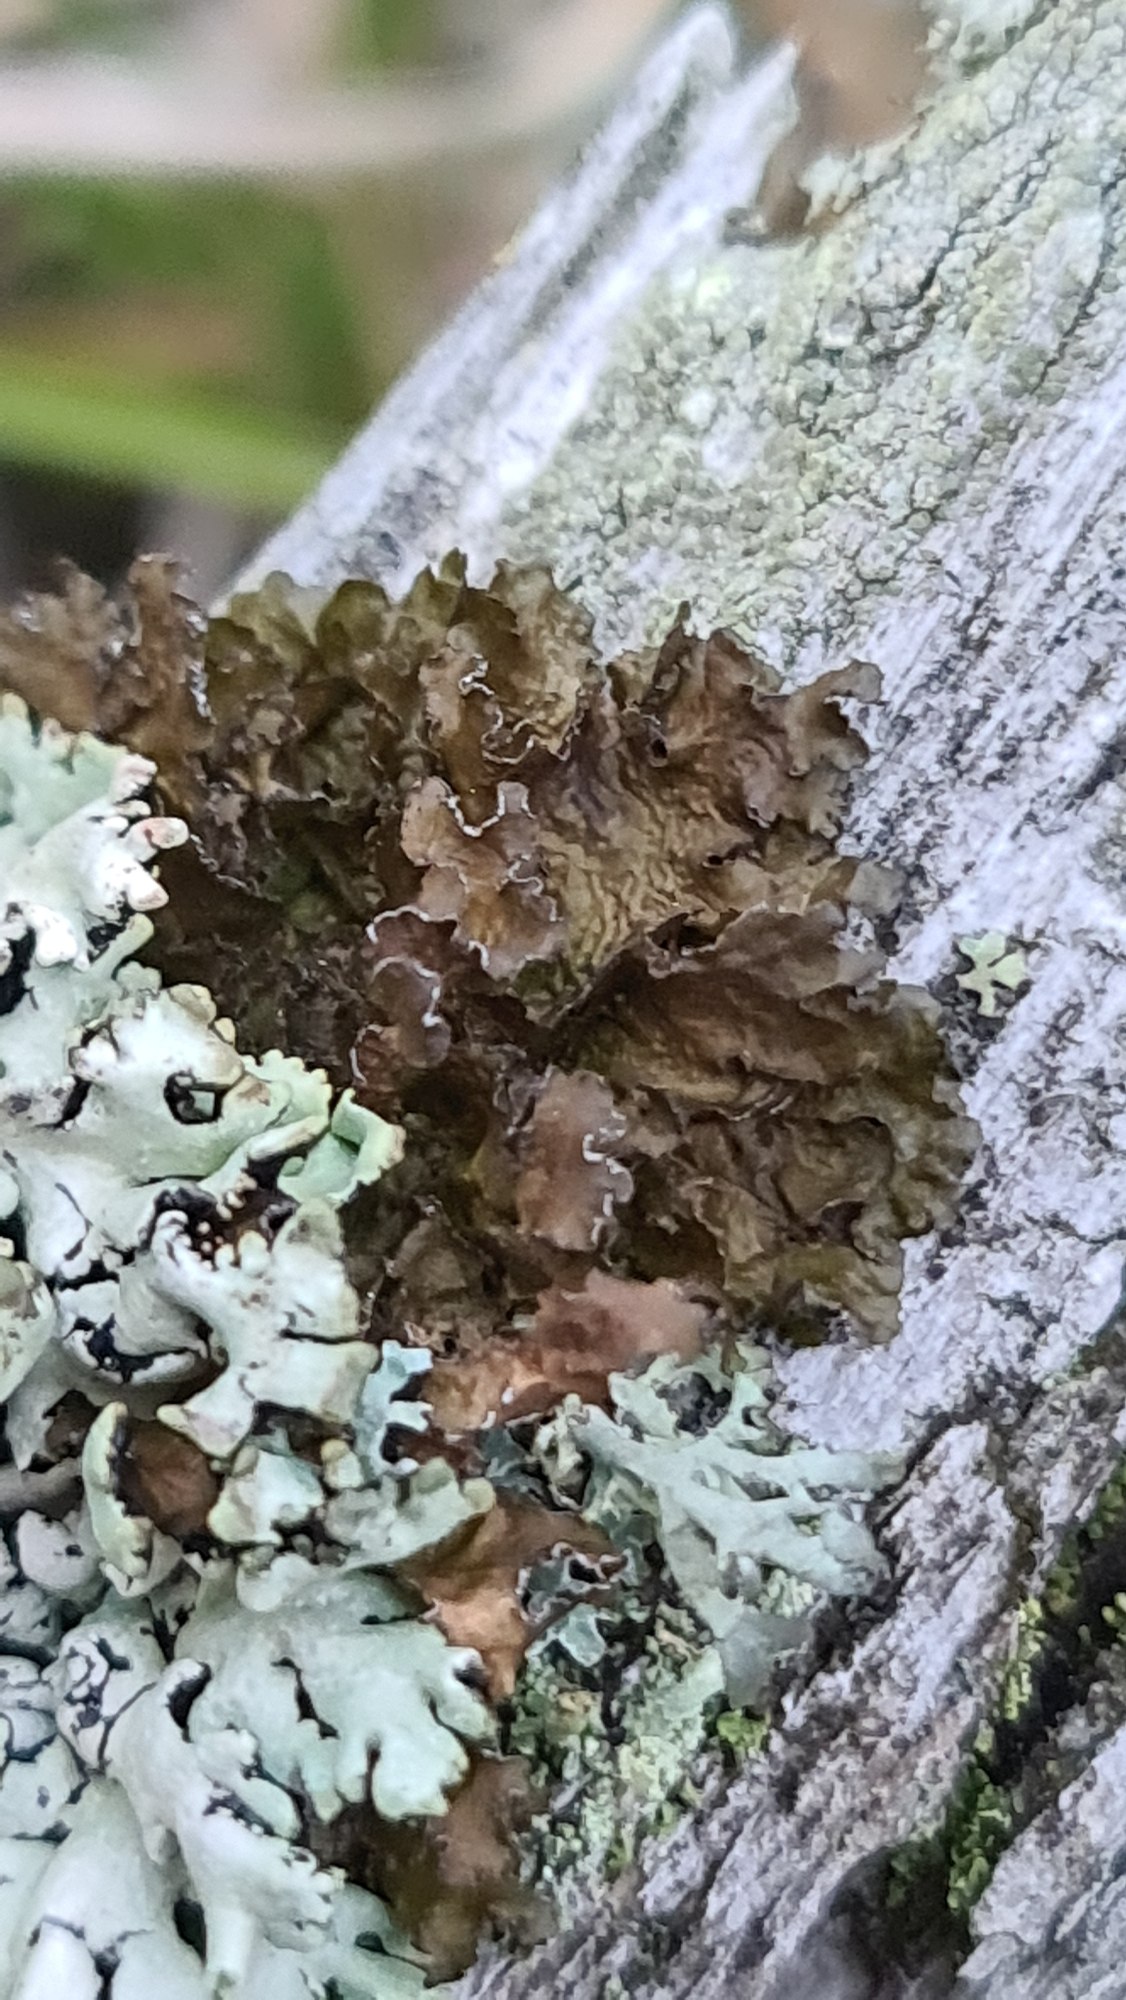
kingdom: Fungi
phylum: Ascomycota
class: Lecanoromycetes
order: Lecanorales
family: Parmeliaceae
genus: Nephromopsis
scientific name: Nephromopsis chlorophylla
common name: Olivenbrun kruslav
